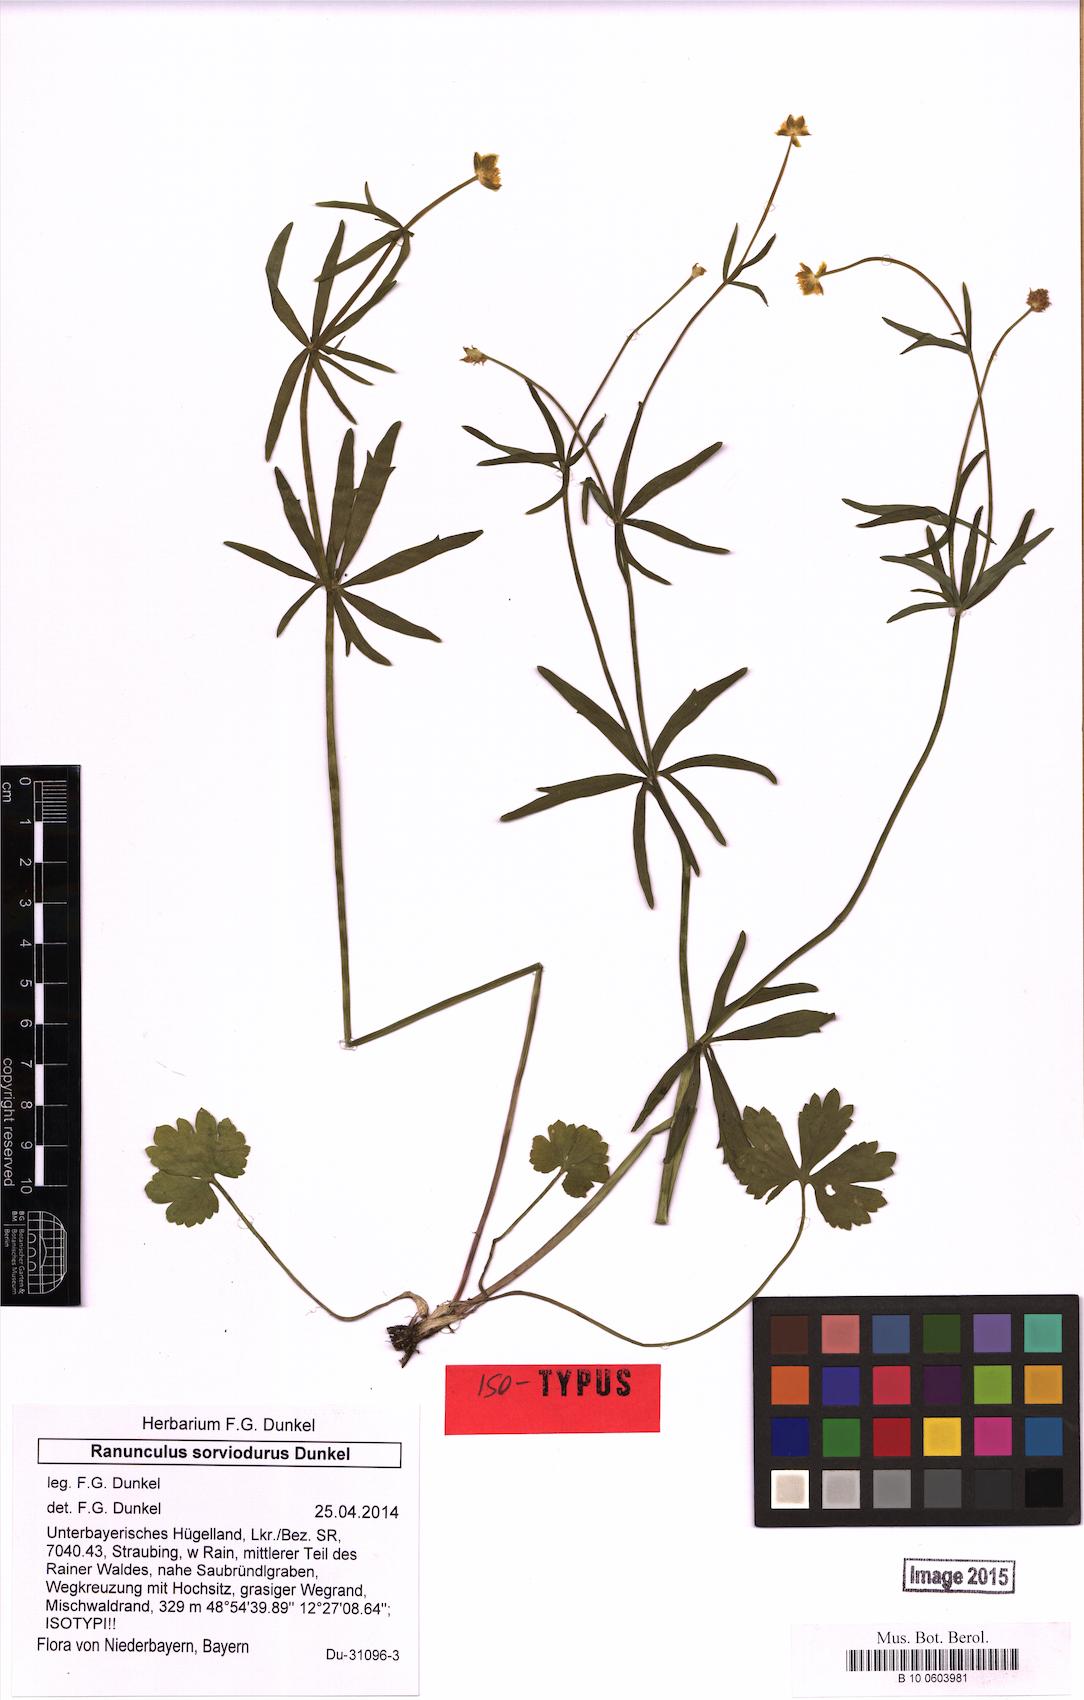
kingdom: Plantae
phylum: Tracheophyta
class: Magnoliopsida
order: Ranunculales
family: Ranunculaceae
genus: Ranunculus
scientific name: Ranunculus sorviodurus
